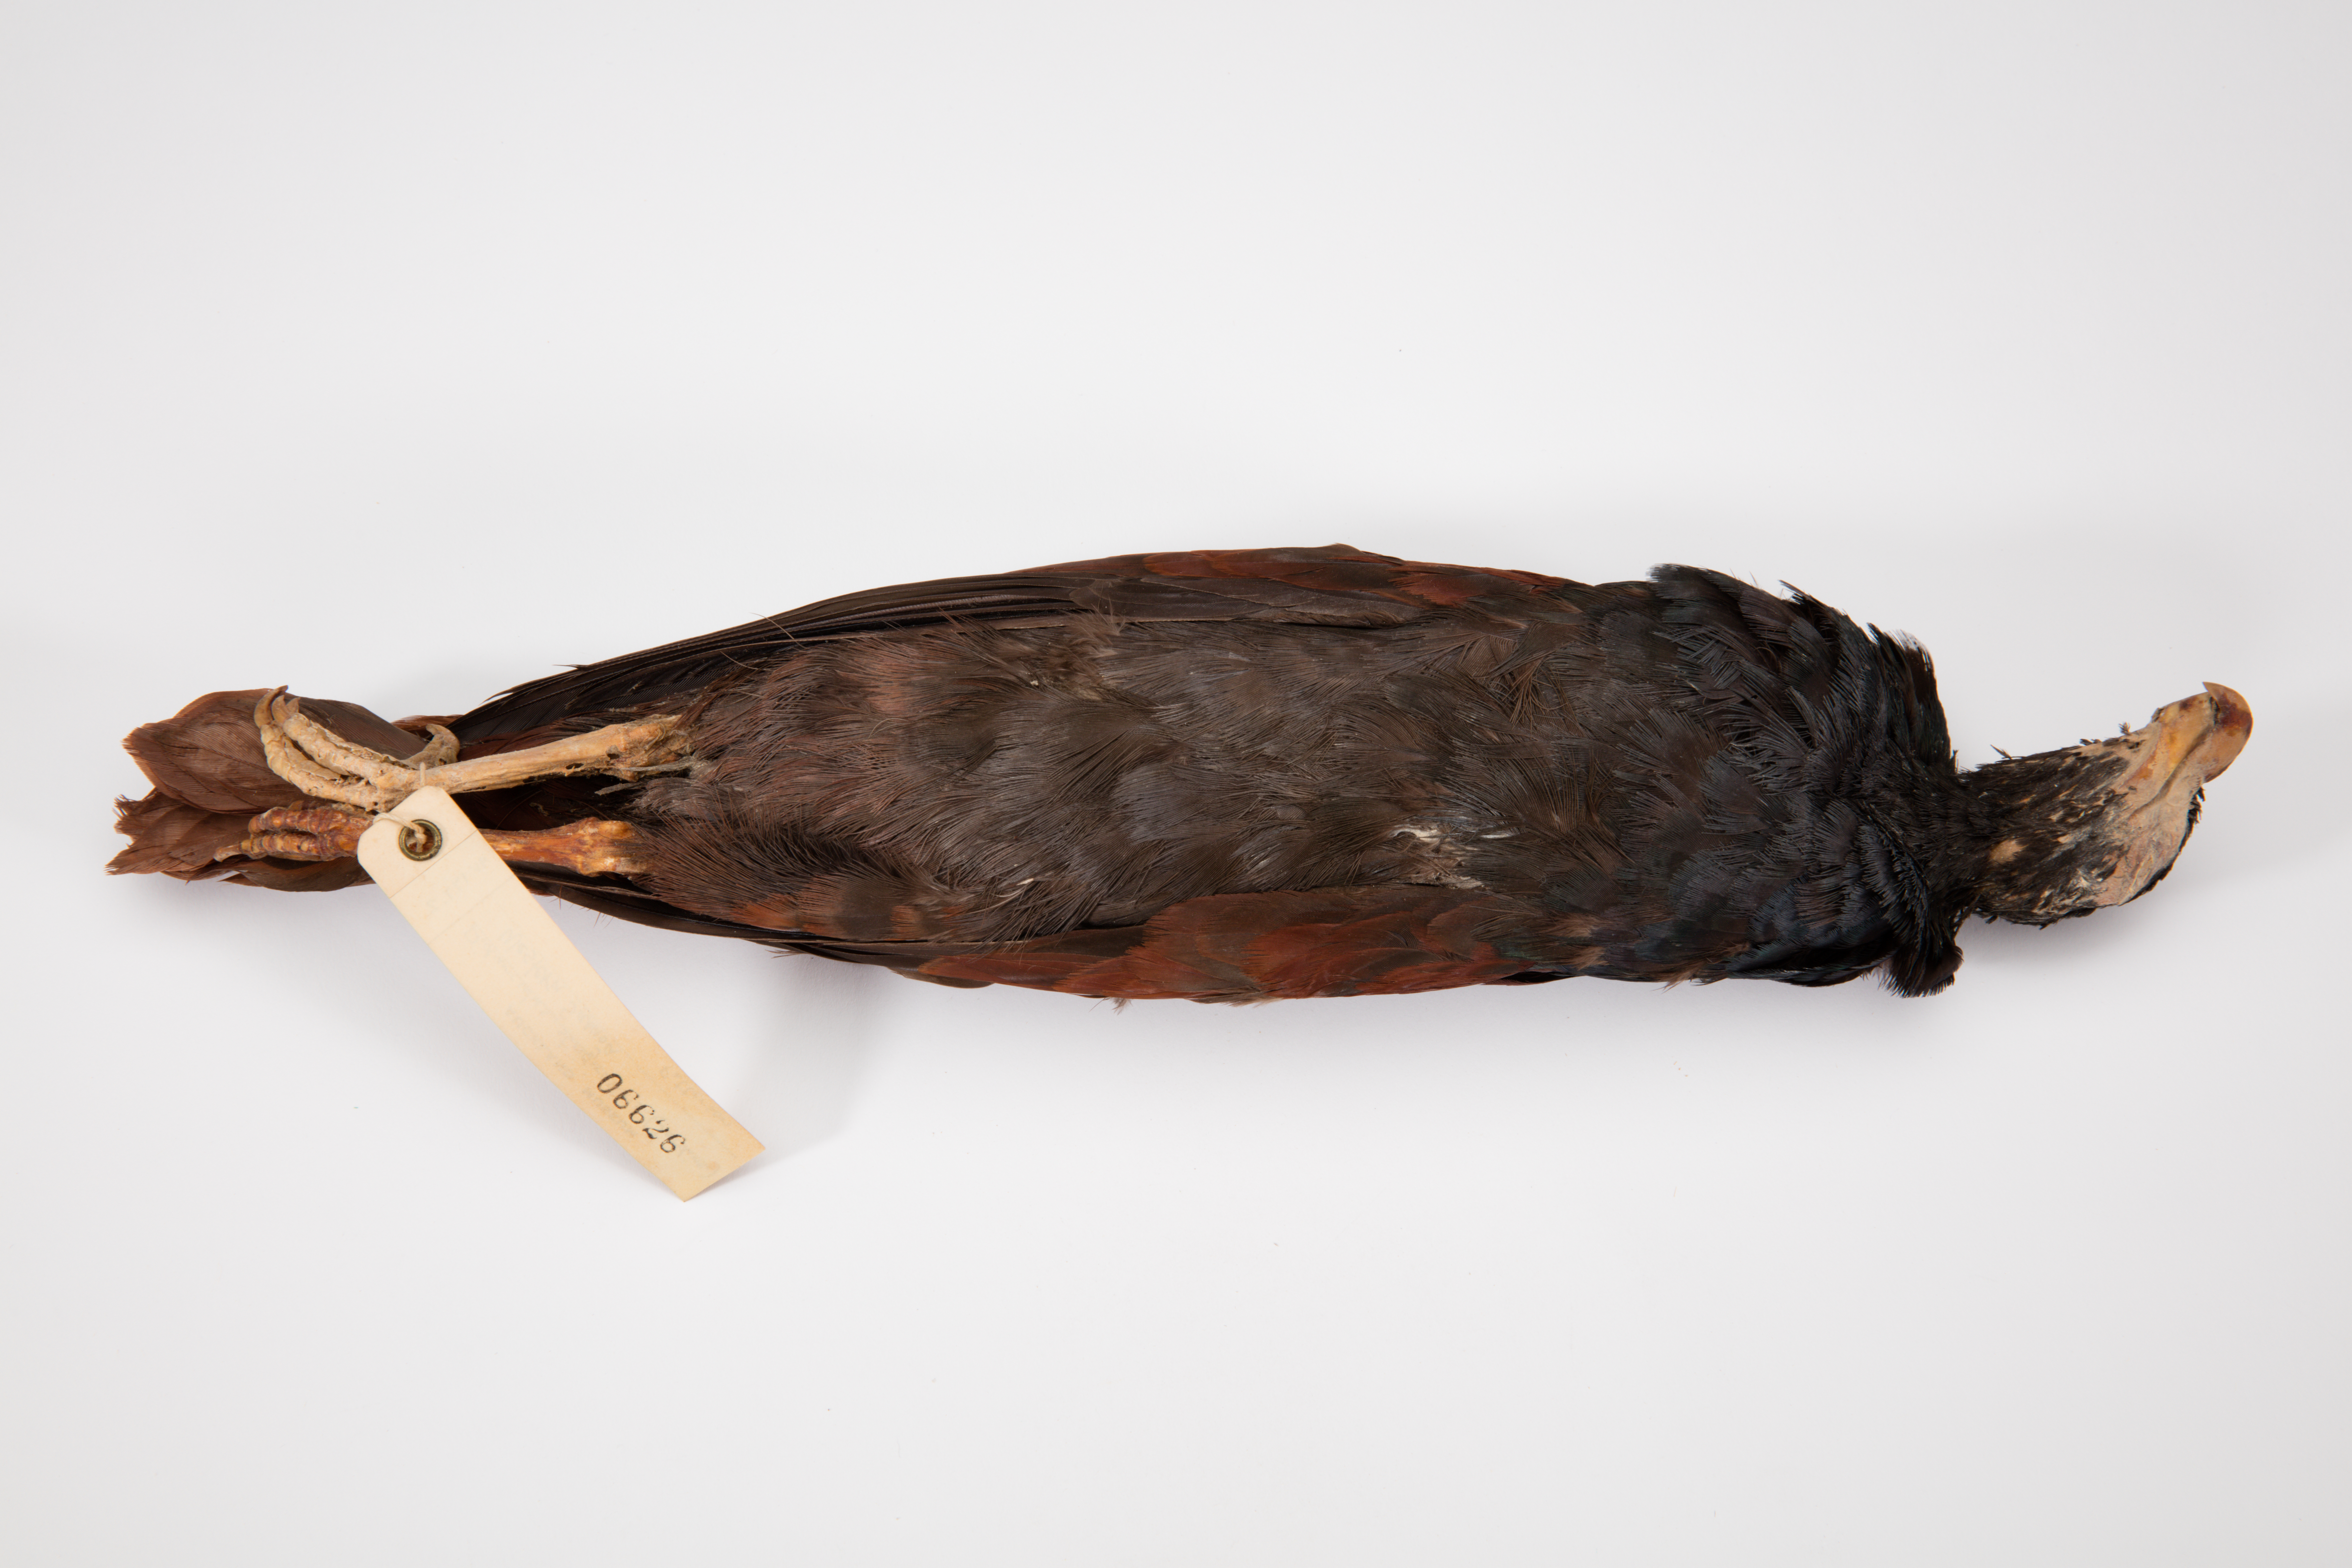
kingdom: Animalia
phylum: Chordata
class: Aves
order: Columbiformes
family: Columbidae
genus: Didunculus
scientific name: Didunculus strigirostris
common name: Tooth-billed pigeon
